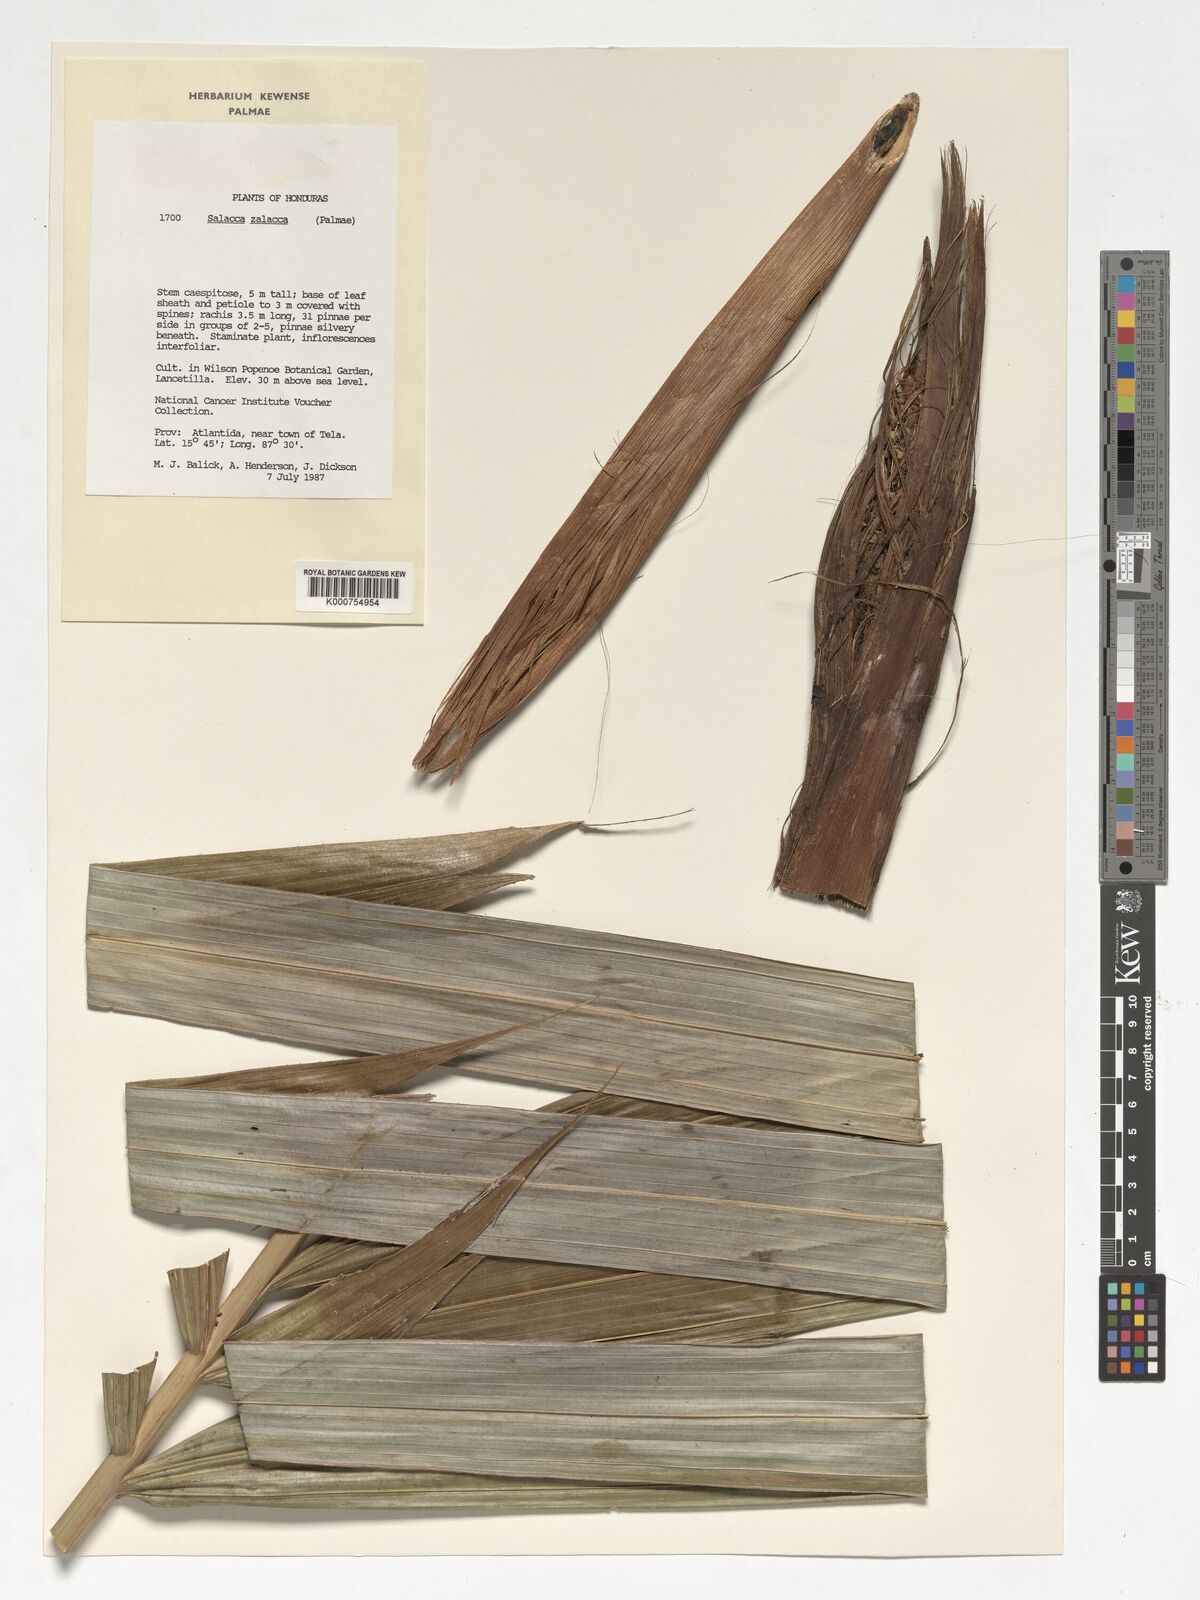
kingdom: Plantae
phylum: Tracheophyta
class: Liliopsida
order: Arecales
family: Arecaceae
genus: Salacca
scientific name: Salacca zalacca
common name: Salak
